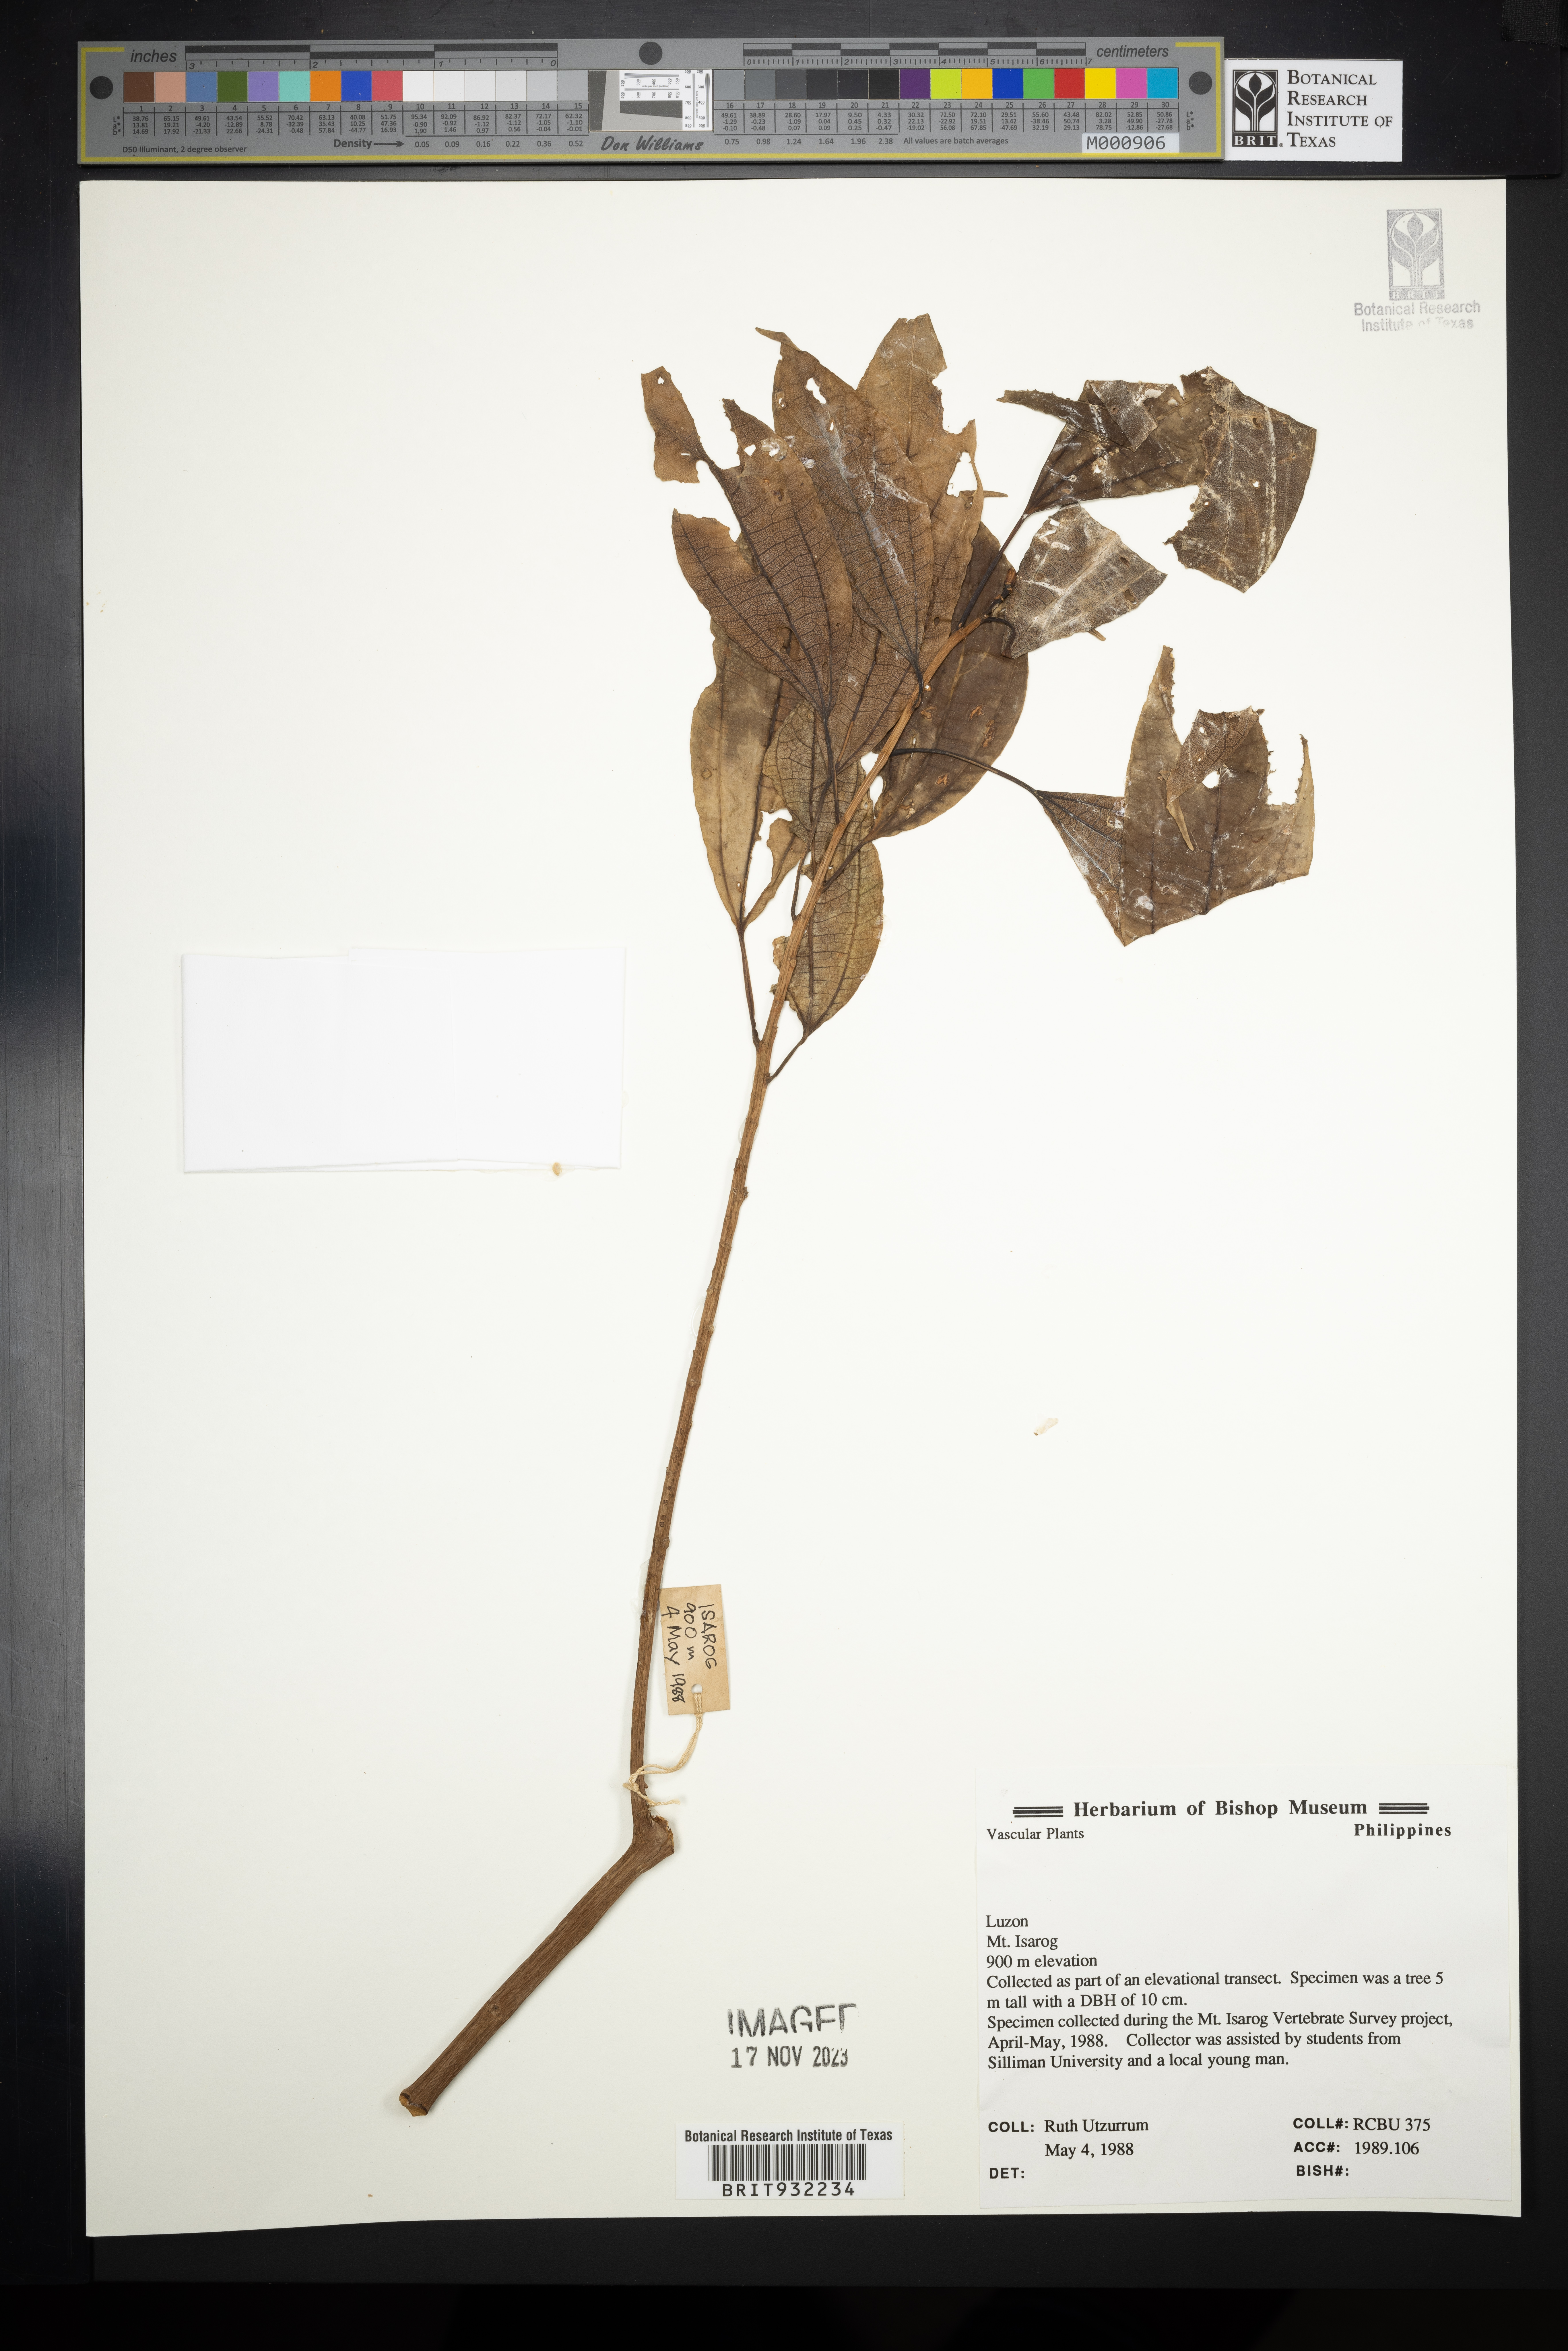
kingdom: Plantae
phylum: Tracheophyta
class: Magnoliopsida
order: Myrtales
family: Melastomataceae
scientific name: Melastomataceae
